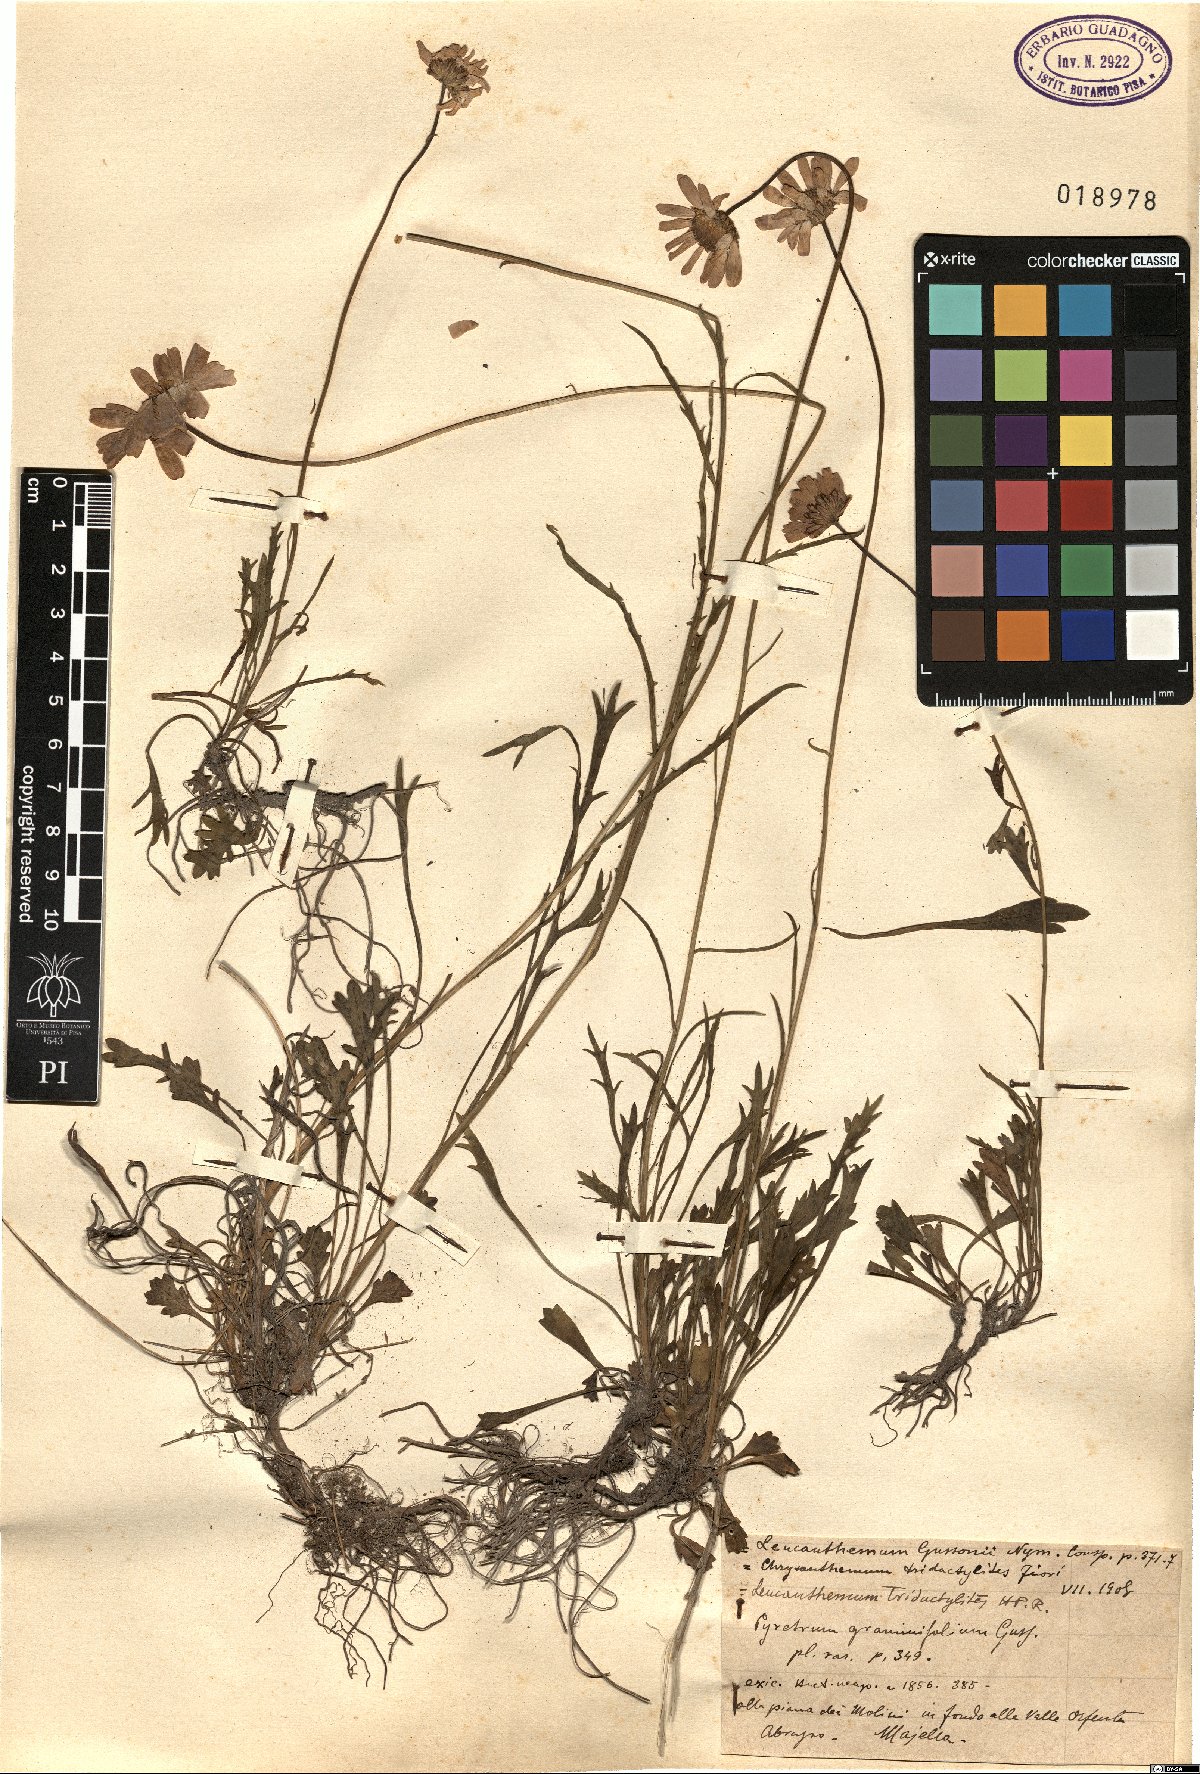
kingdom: Plantae
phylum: Tracheophyta
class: Magnoliopsida
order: Asterales
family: Asteraceae
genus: Leucanthemum
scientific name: Leucanthemum tridactylites
